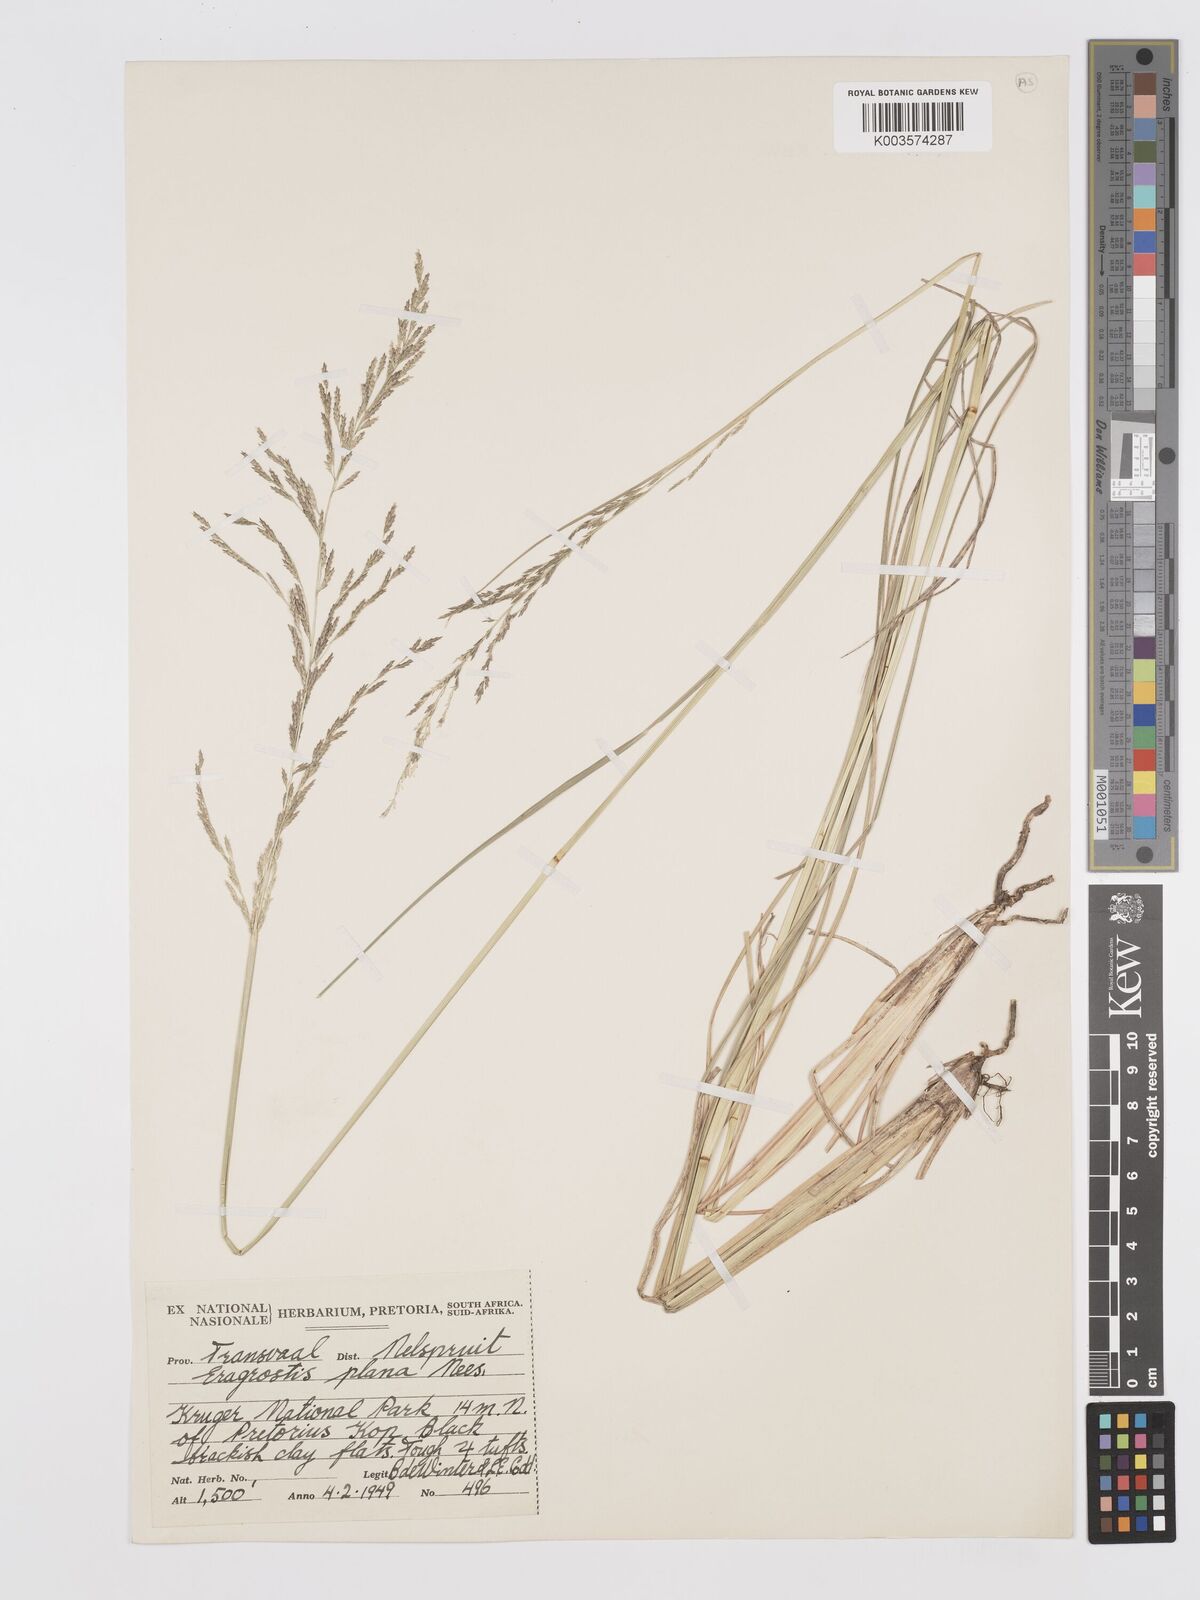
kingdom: Plantae
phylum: Tracheophyta
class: Liliopsida
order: Poales
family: Poaceae
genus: Eragrostis
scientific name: Eragrostis plana
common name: South african lovegrass
